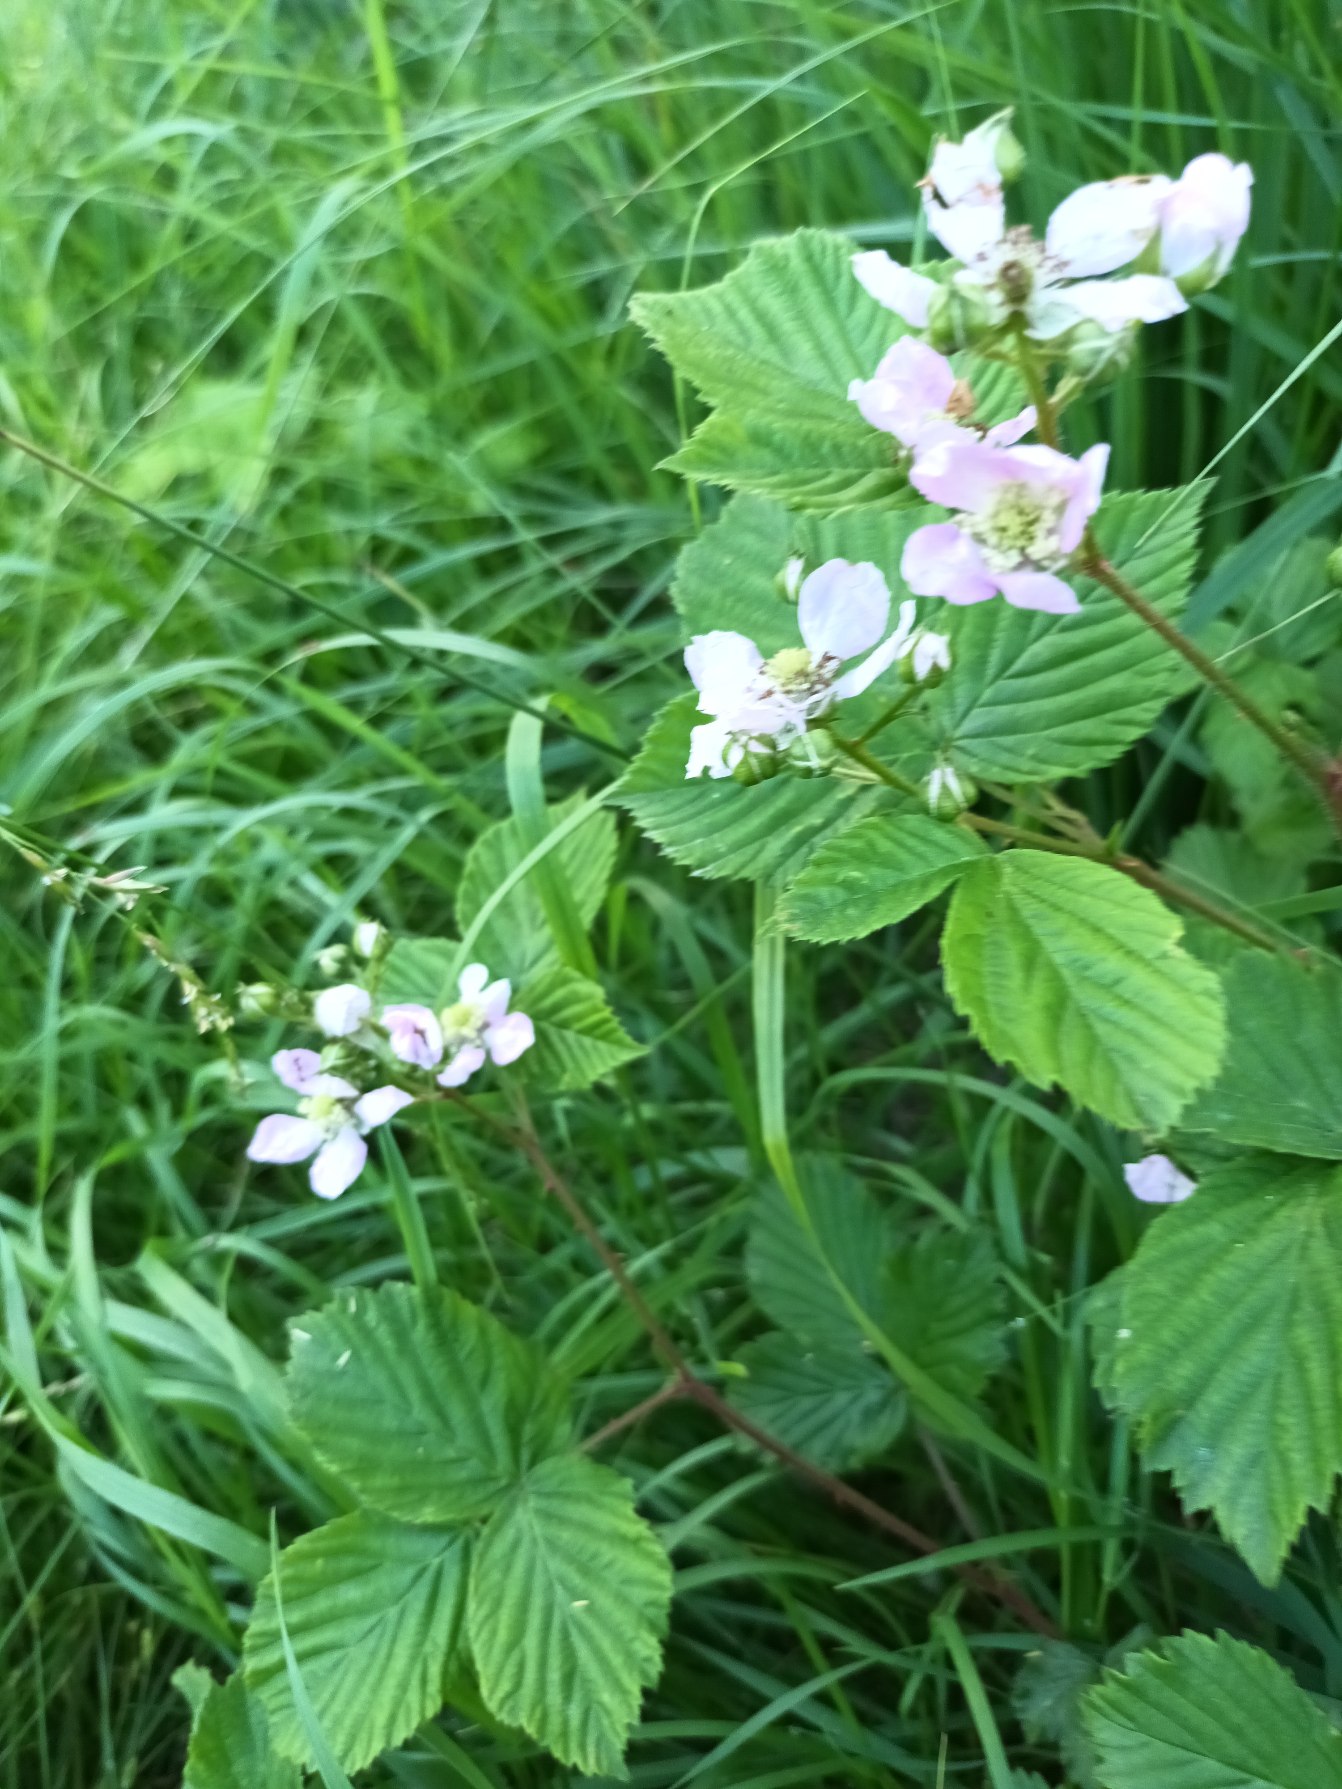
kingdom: Plantae
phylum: Tracheophyta
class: Magnoliopsida
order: Rosales
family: Rosaceae
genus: Rubus
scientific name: Rubus plicatus
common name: Almindelig brombær
